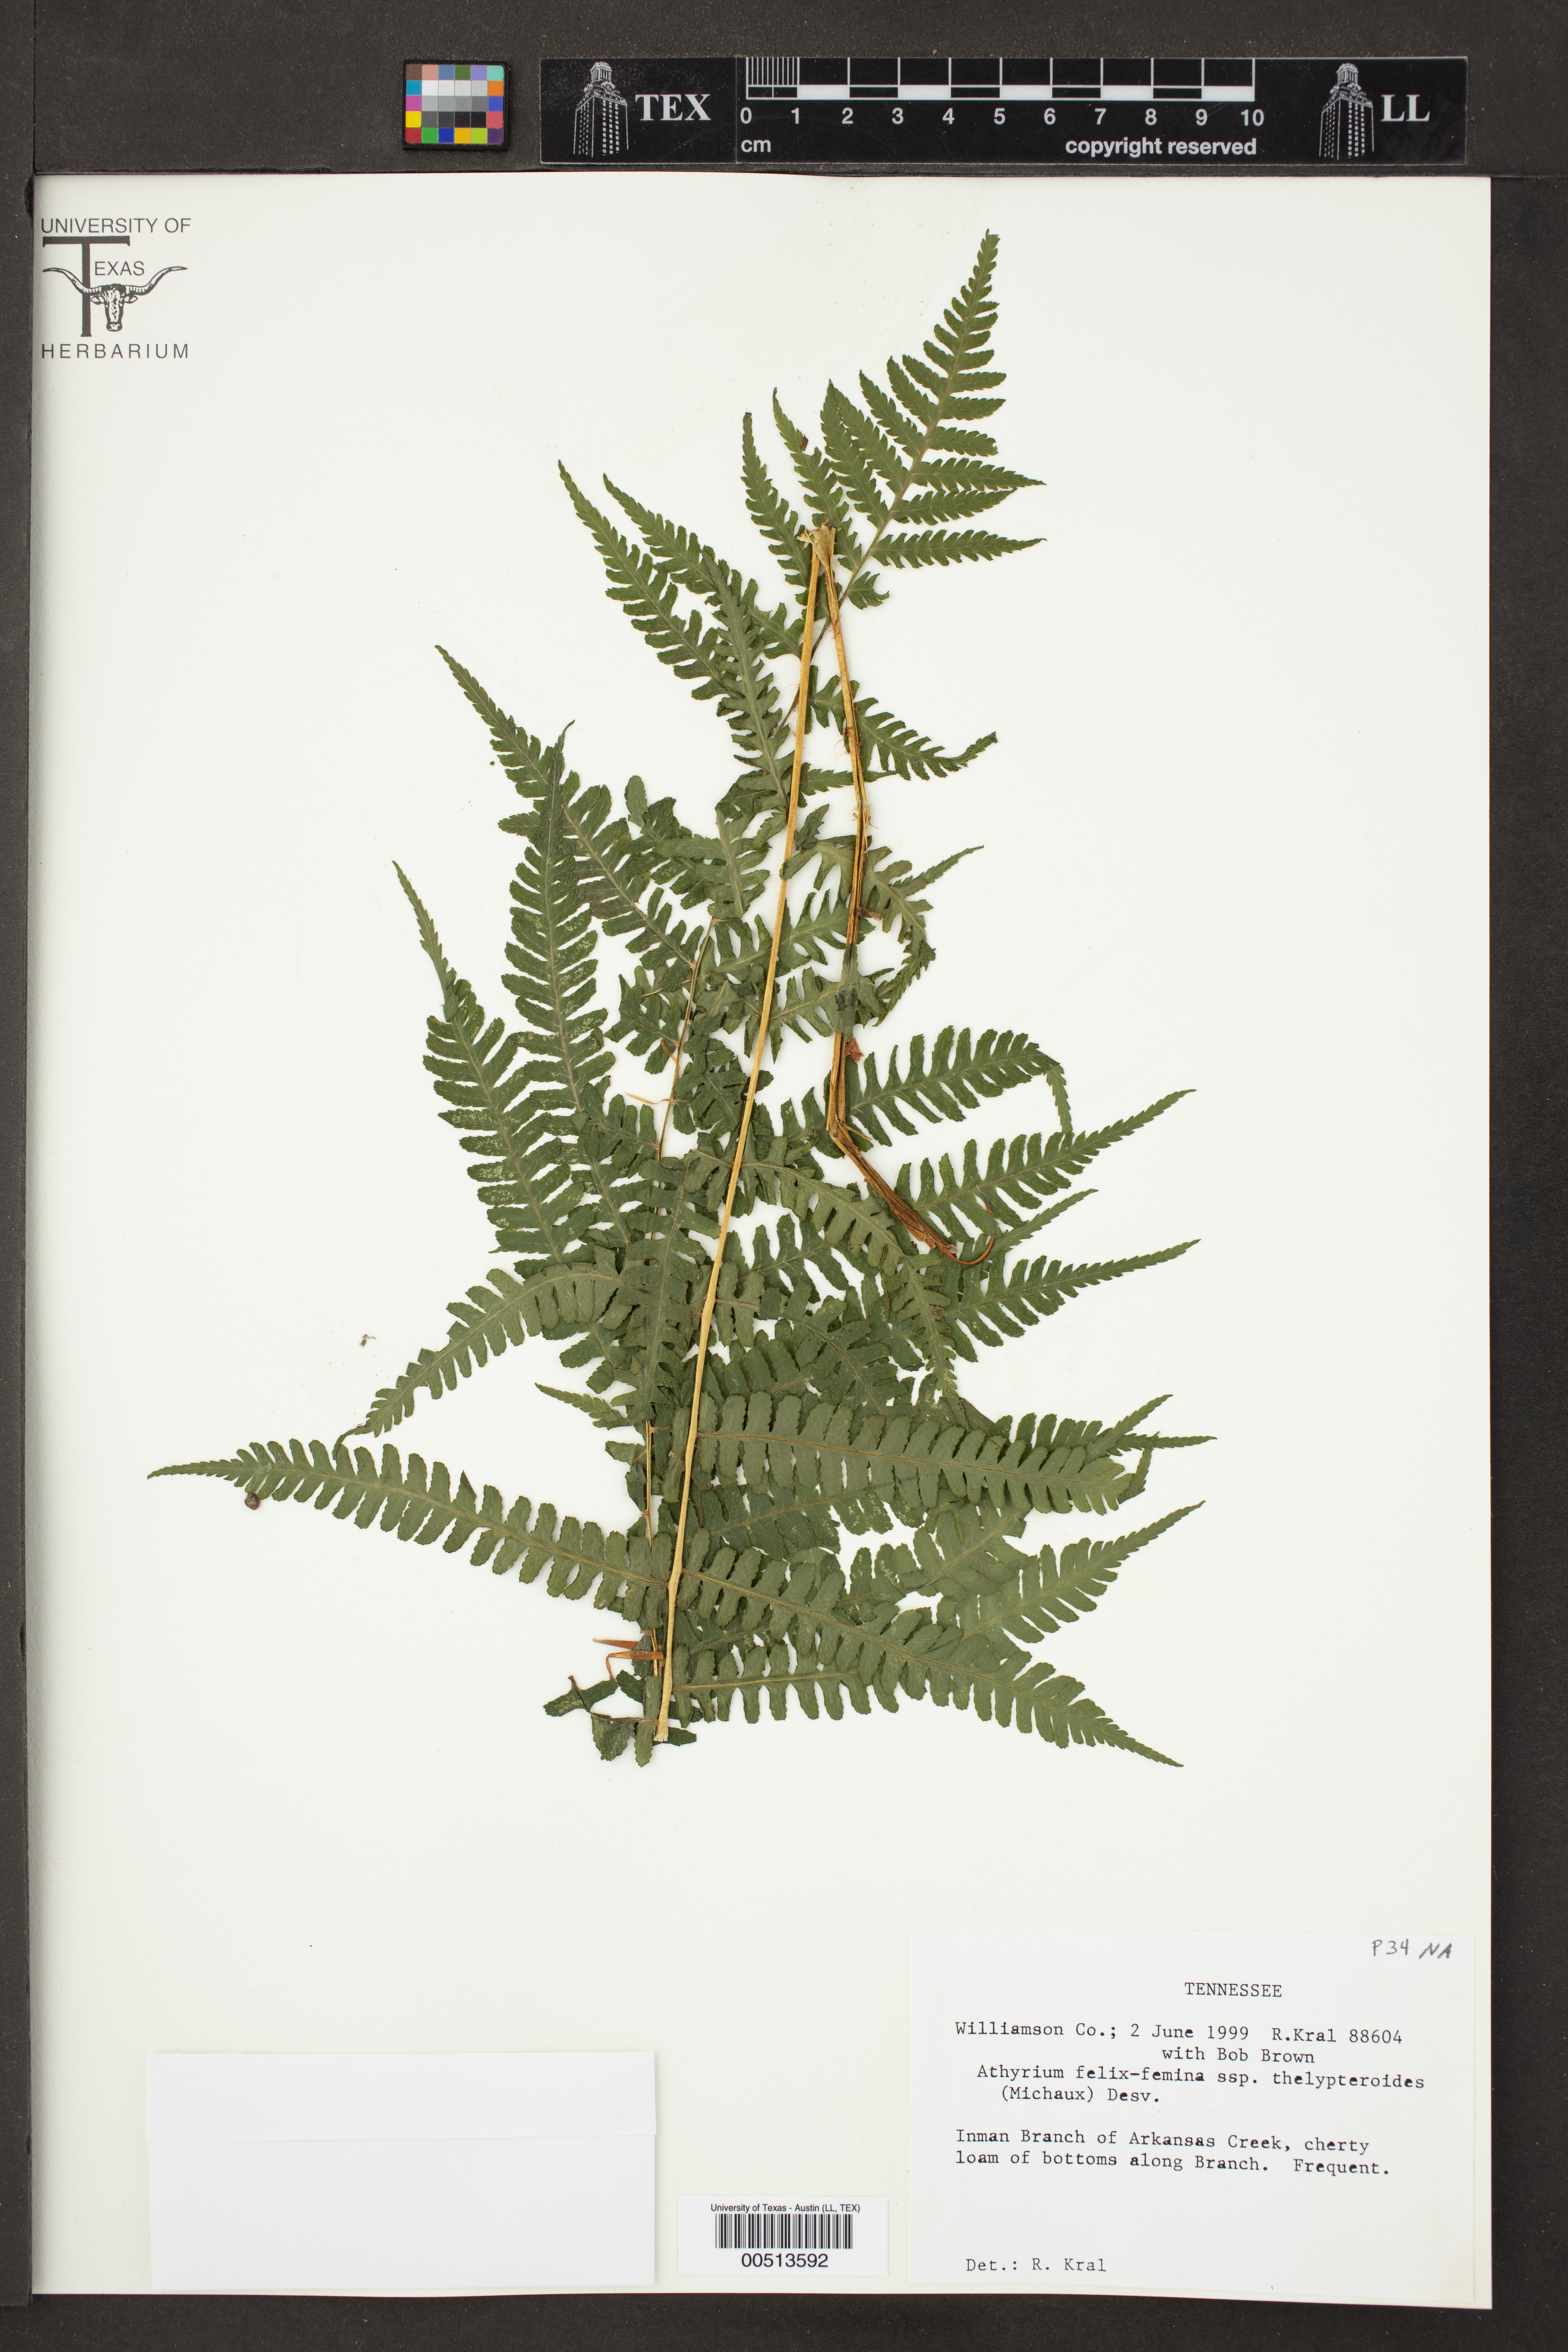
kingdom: Plantae
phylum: Tracheophyta
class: Polypodiopsida
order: Polypodiales
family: Athyriaceae
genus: Athyrium
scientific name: Athyrium filix-femina
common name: Lady fern
